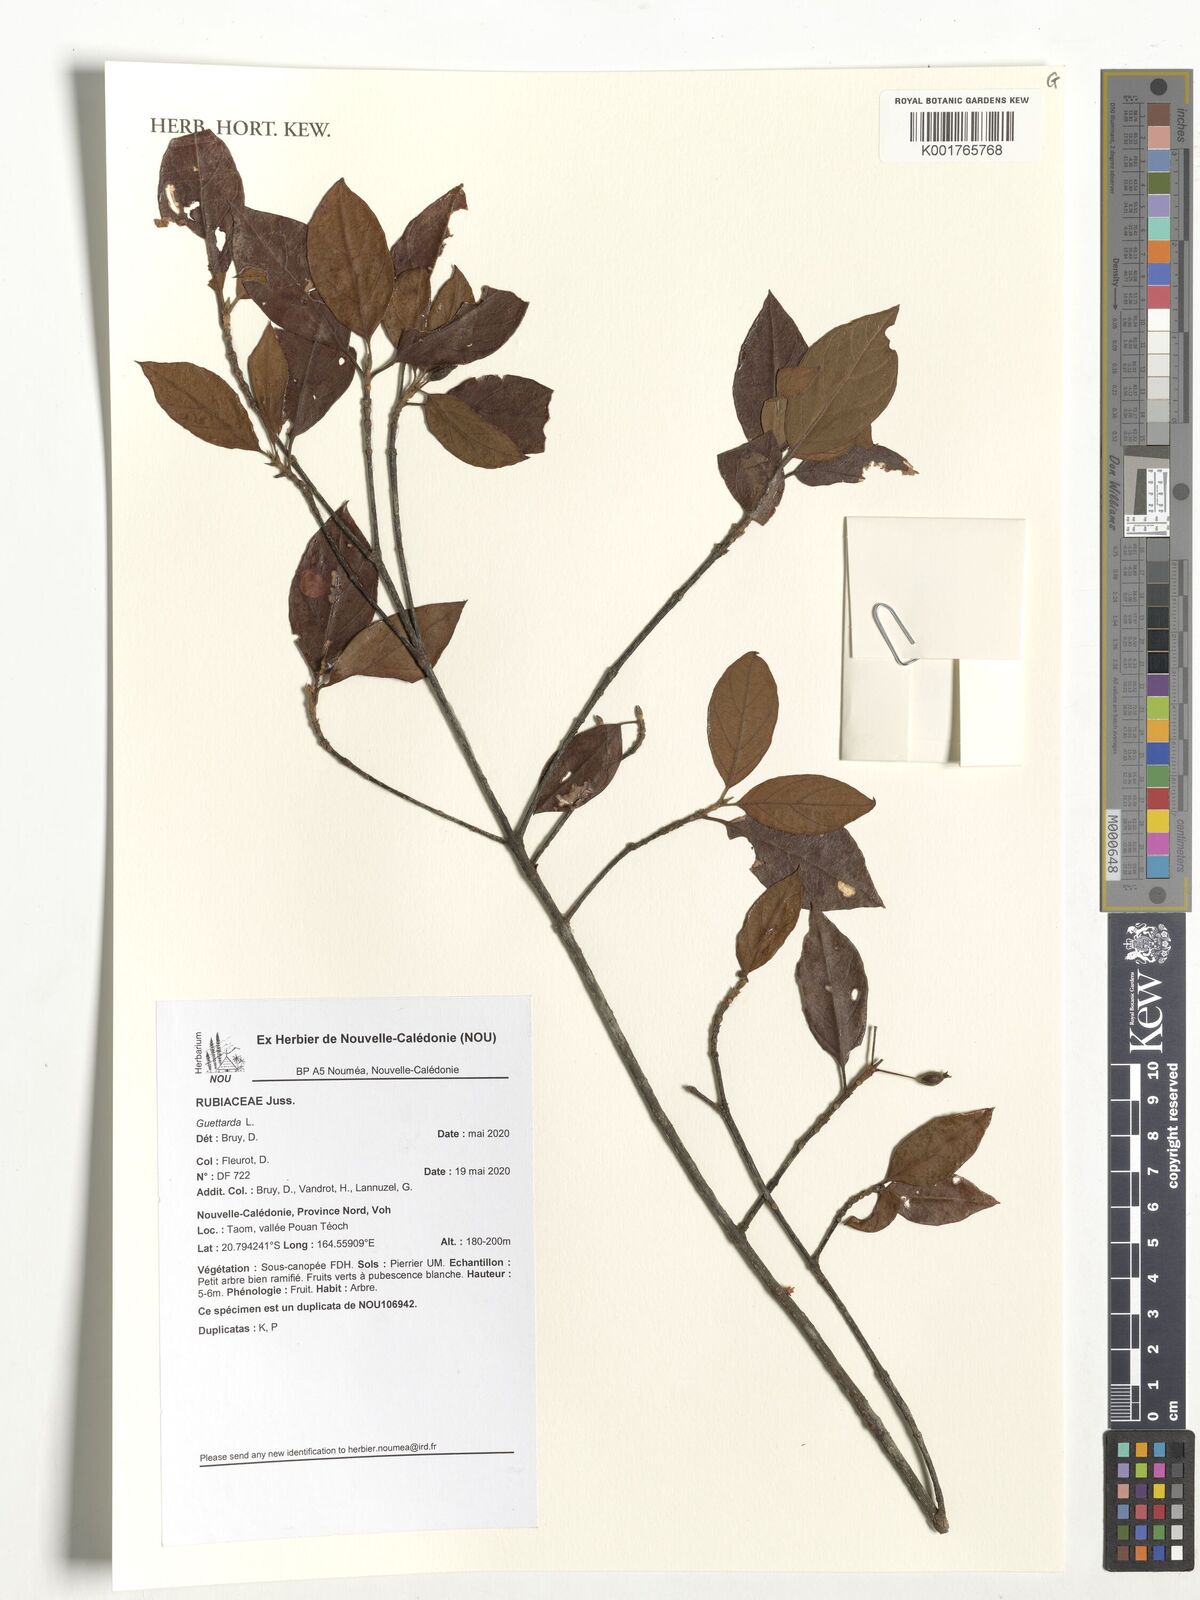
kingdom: Plantae
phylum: Tracheophyta
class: Magnoliopsida
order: Gentianales
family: Rubiaceae
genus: Guettarda
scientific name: Guettarda
